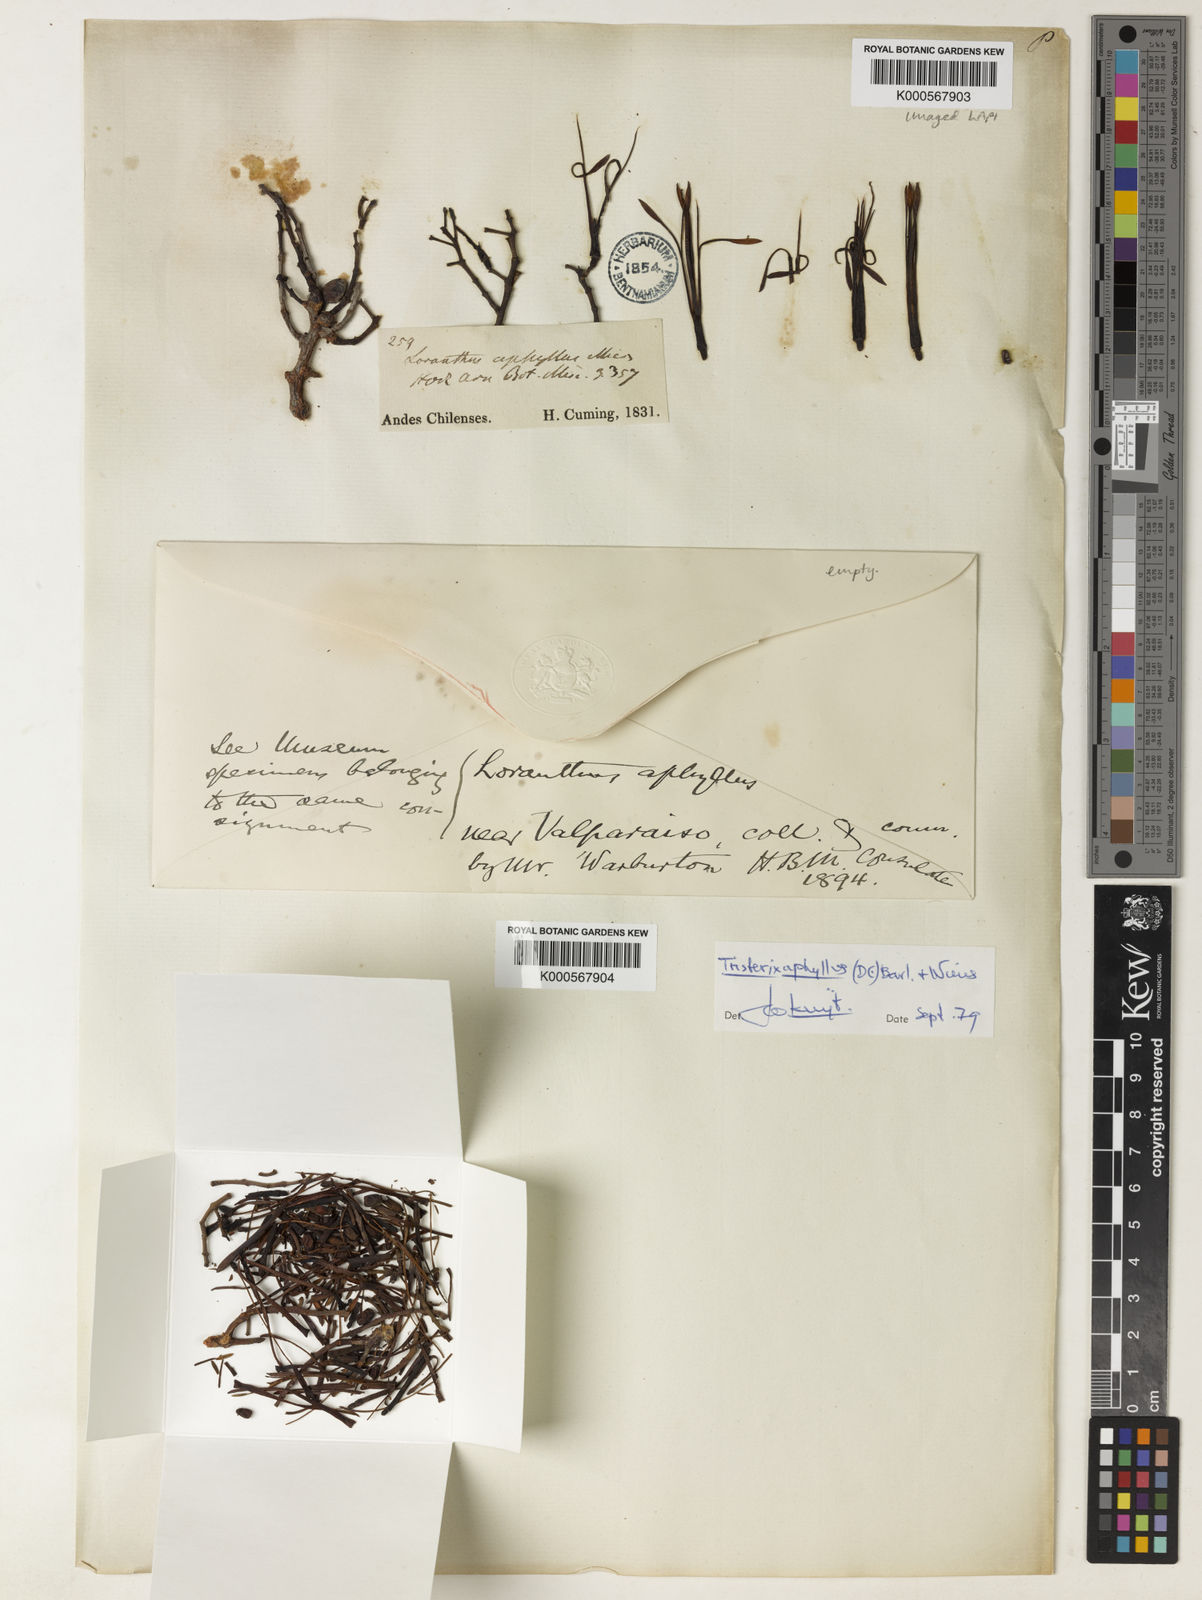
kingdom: Plantae
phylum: Tracheophyta
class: Magnoliopsida
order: Santalales
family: Loranthaceae
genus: Tristerix
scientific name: Tristerix aphyllus
